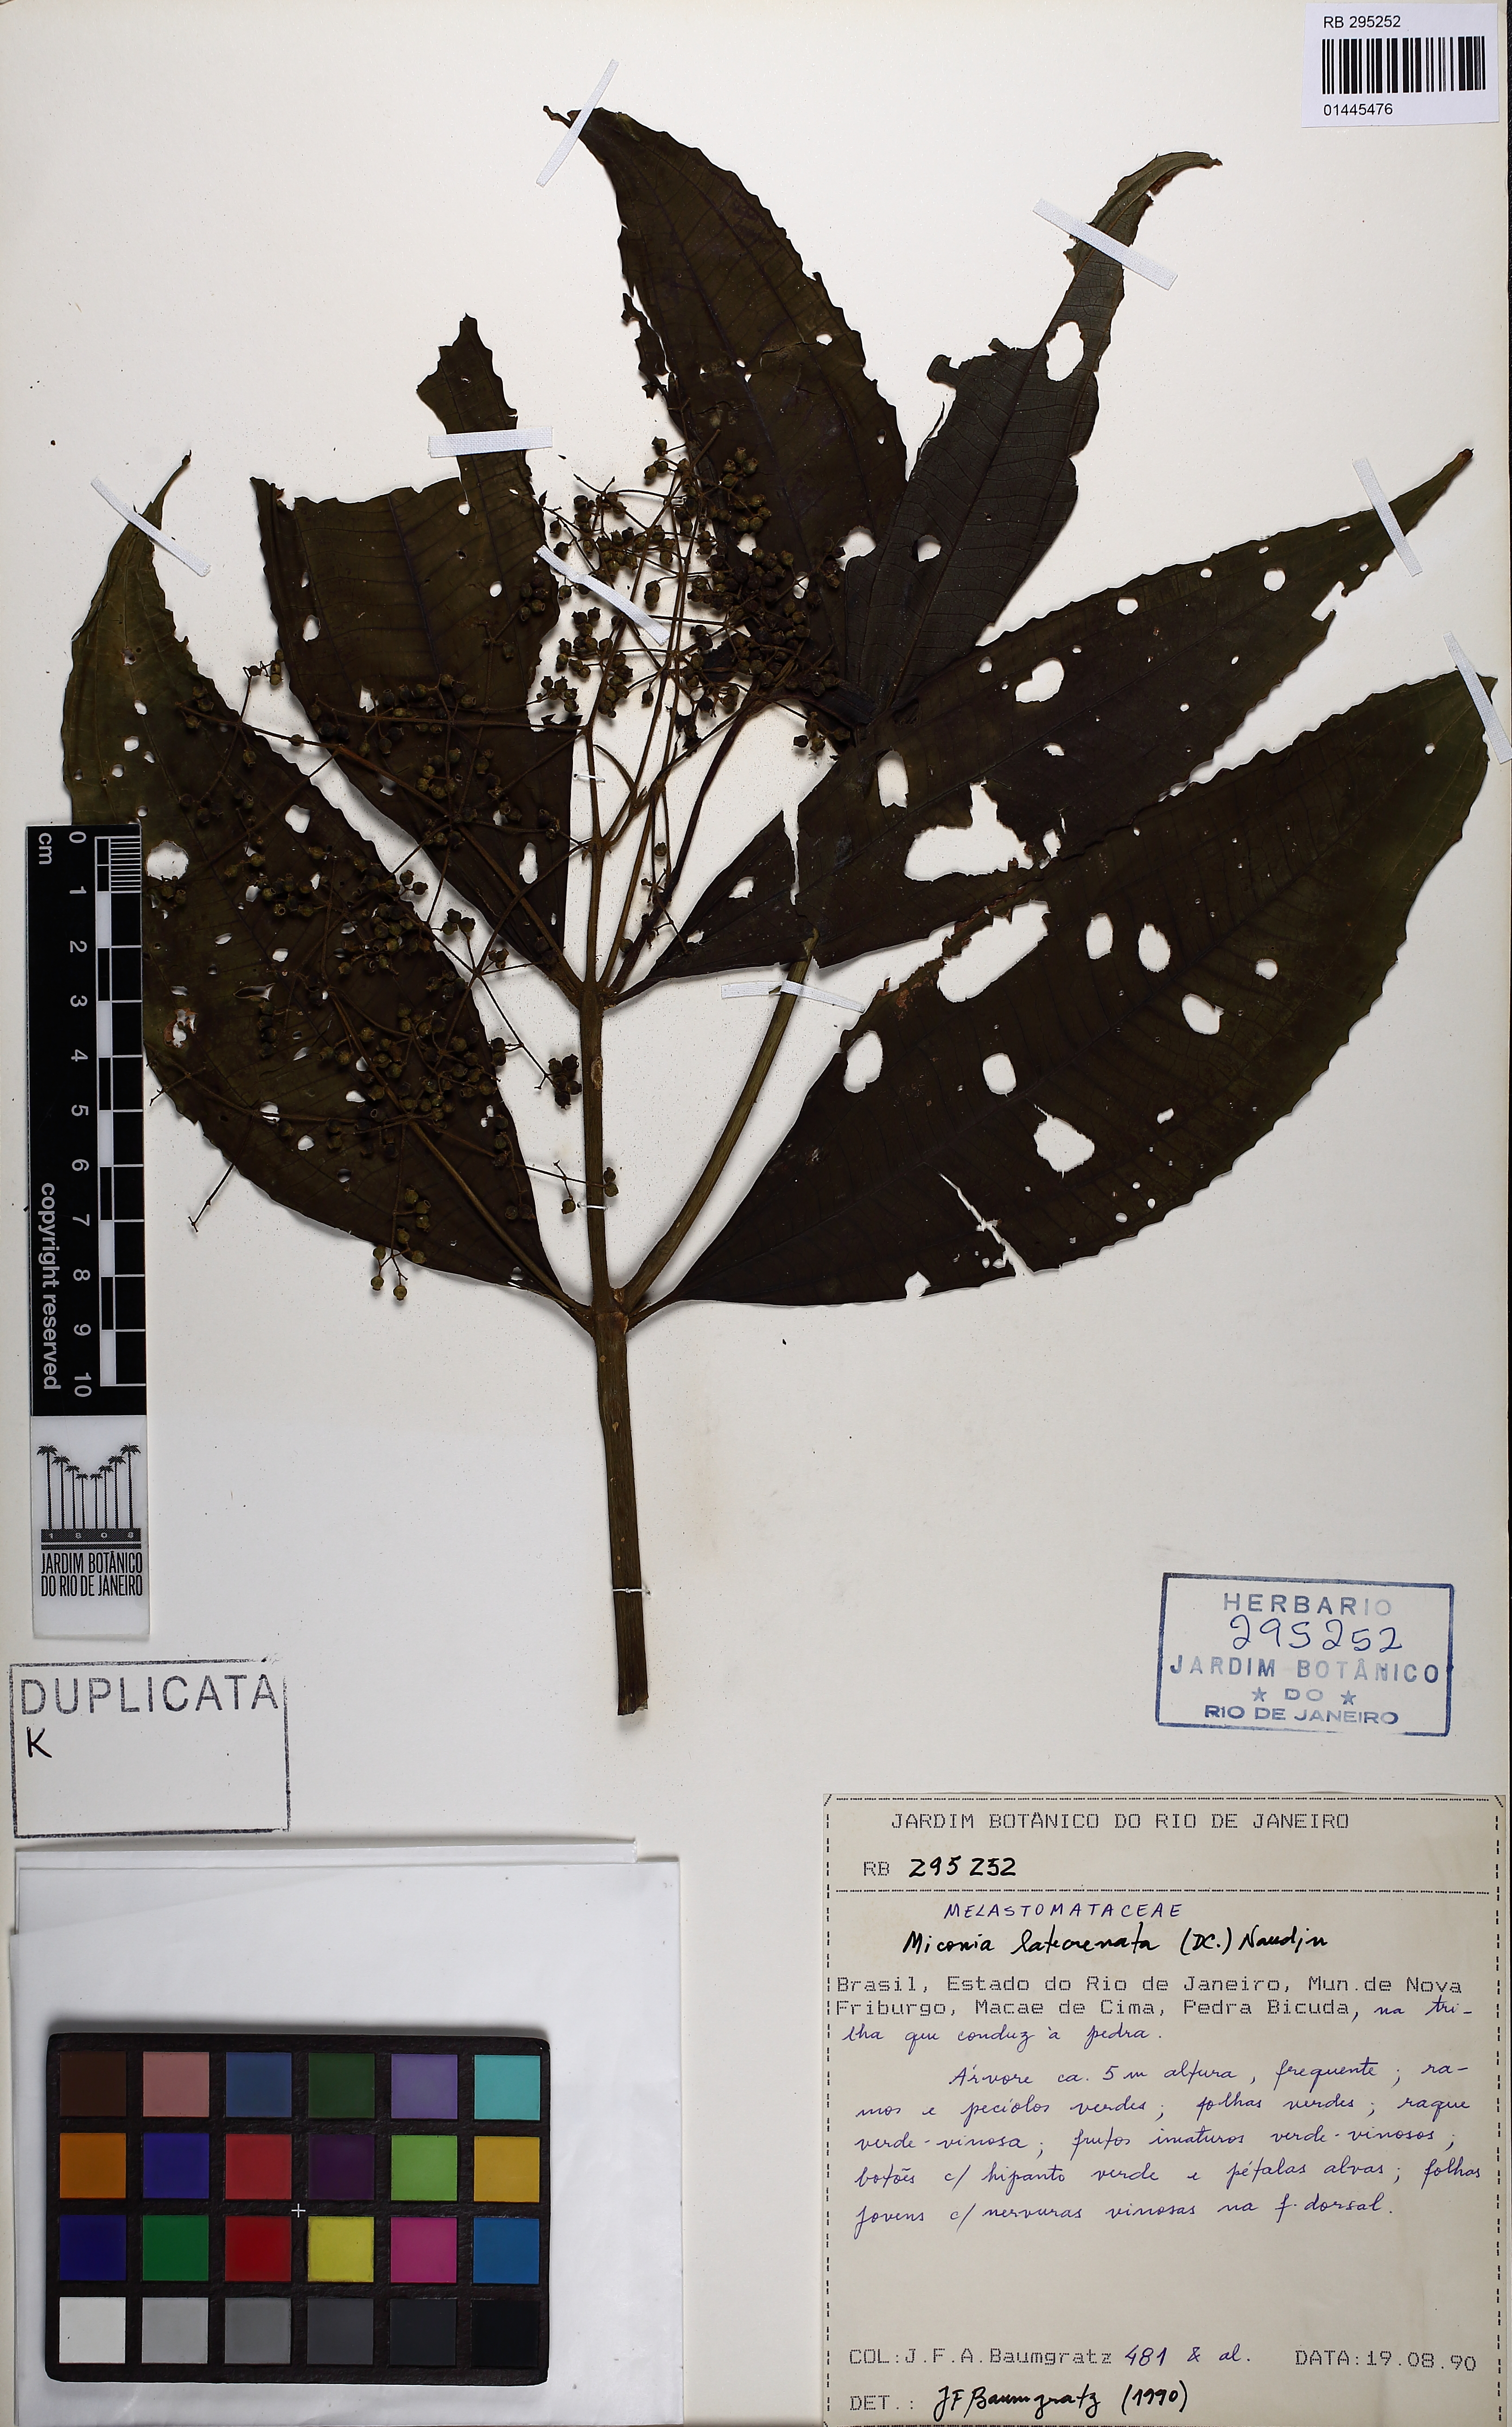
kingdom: Plantae
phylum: Tracheophyta
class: Magnoliopsida
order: Myrtales
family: Melastomataceae
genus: Miconia
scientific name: Miconia latecrenata
